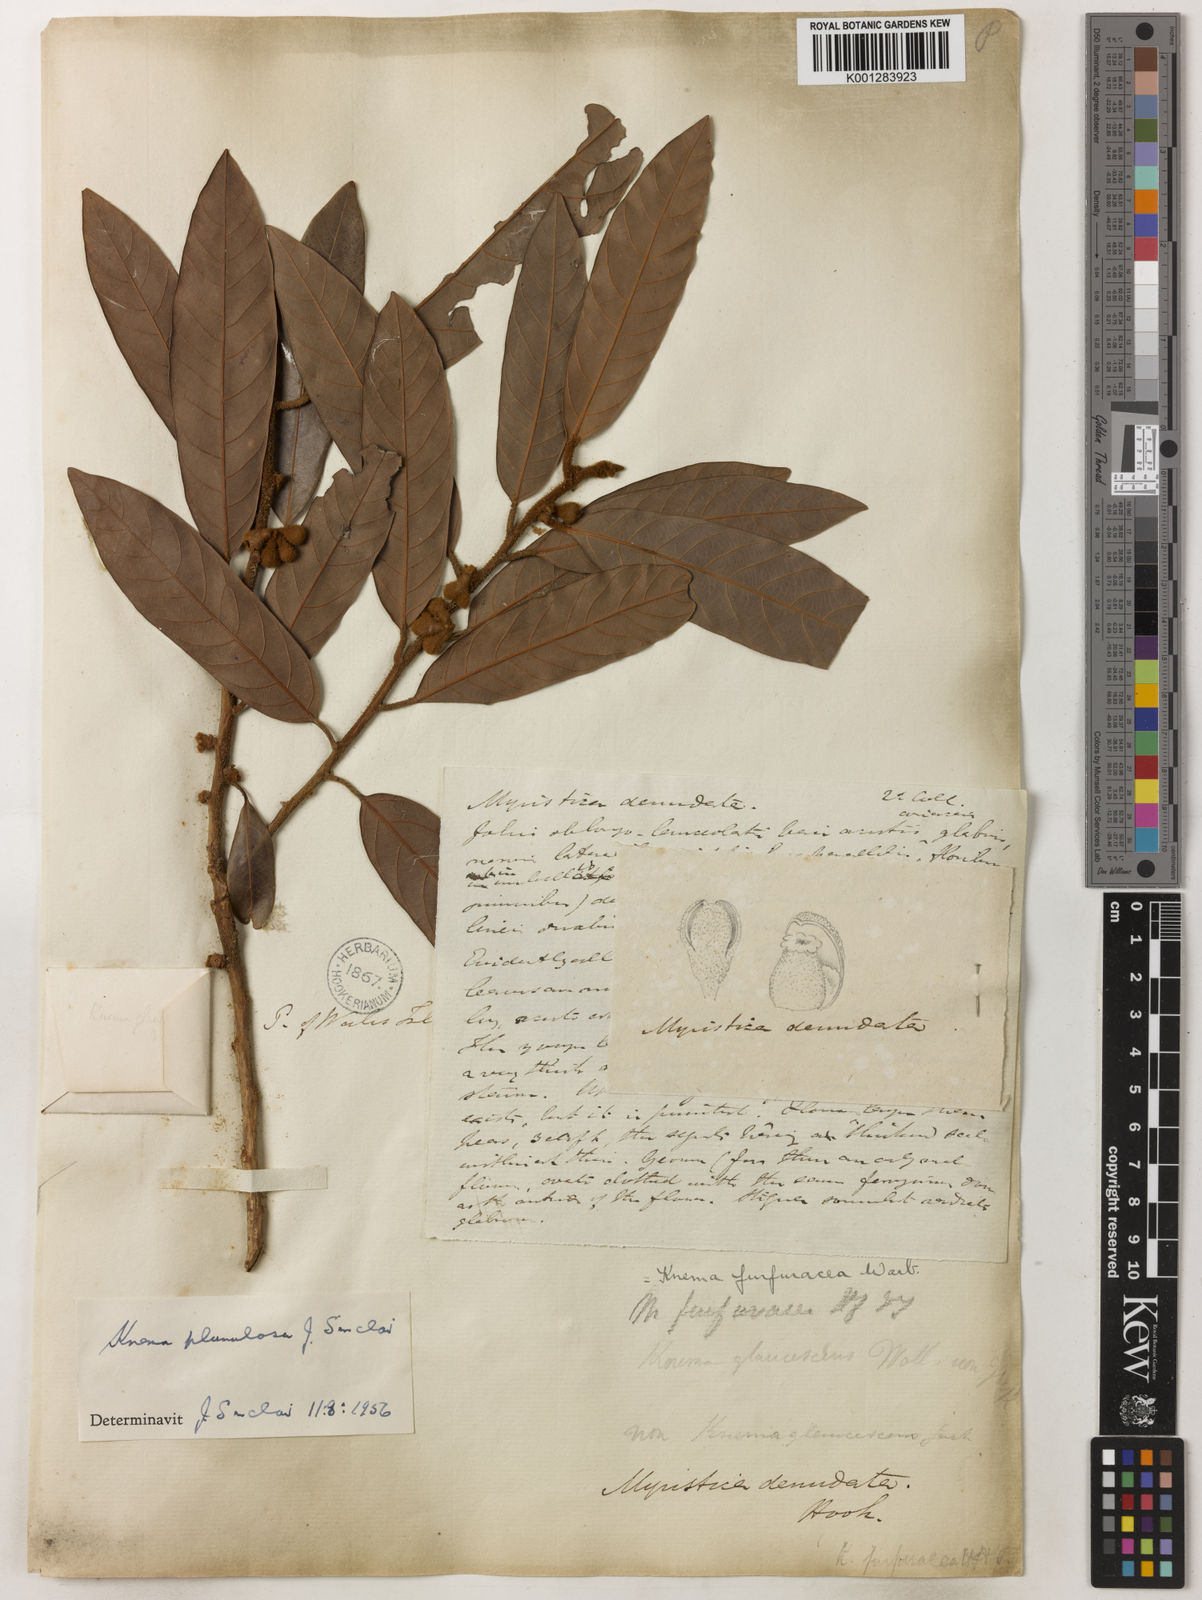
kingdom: Plantae
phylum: Tracheophyta
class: Magnoliopsida
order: Magnoliales
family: Myristicaceae
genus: Knema
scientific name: Knema plumulosa
